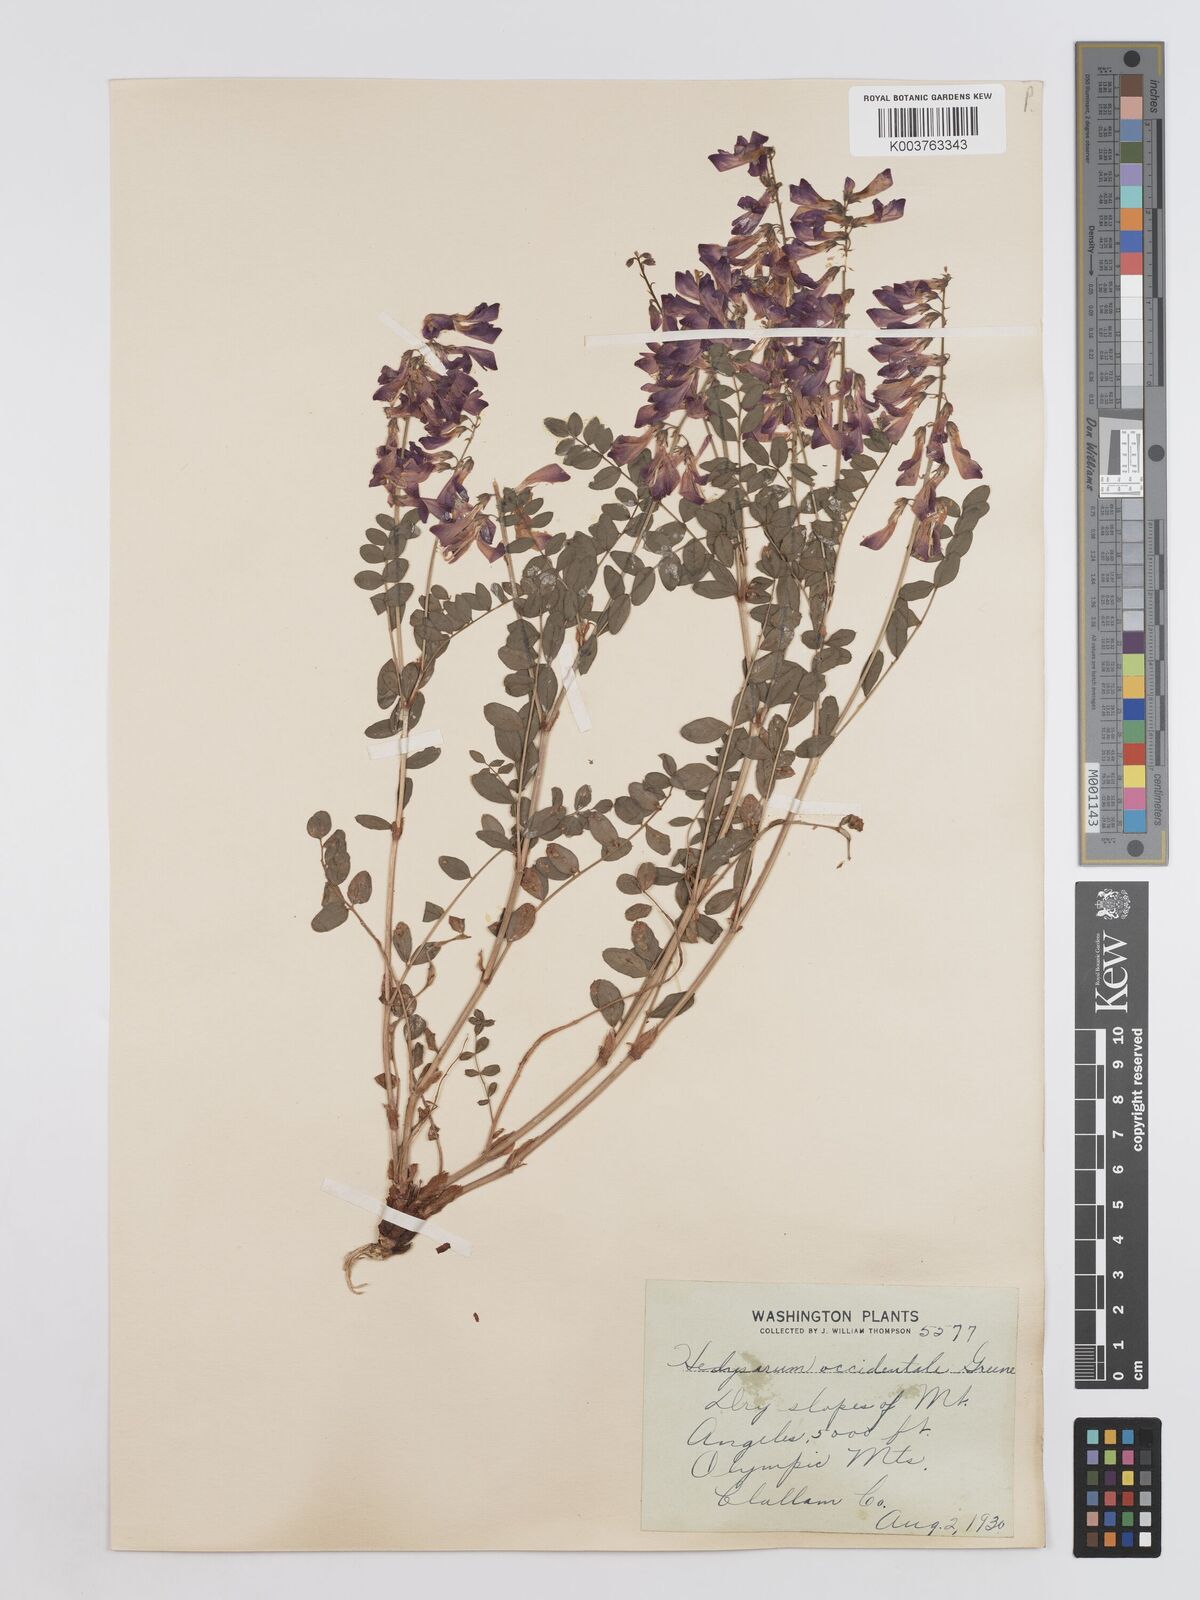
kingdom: Plantae
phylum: Tracheophyta
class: Magnoliopsida
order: Fabales
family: Fabaceae
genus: Hedysarum
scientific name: Hedysarum occidentale
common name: Western hedysarum
